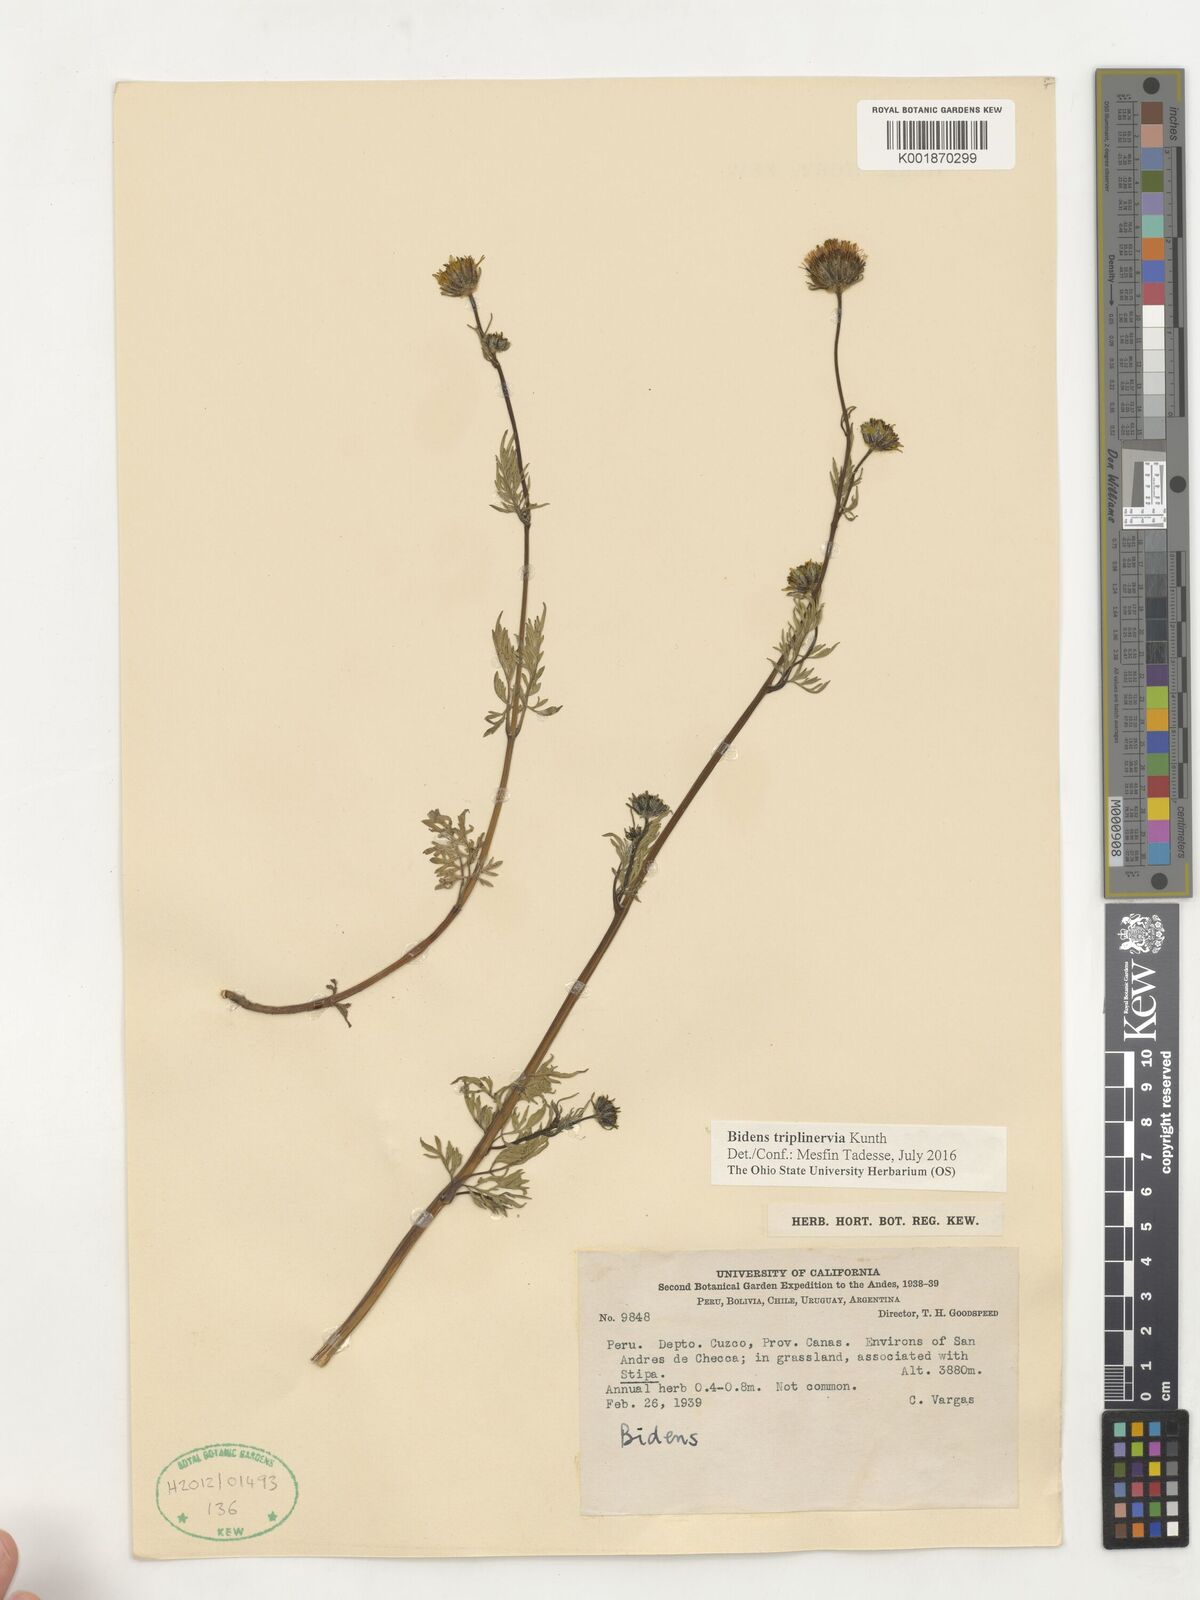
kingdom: Plantae
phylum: Tracheophyta
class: Magnoliopsida
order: Asterales
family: Asteraceae
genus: Bidens
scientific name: Bidens triplinervia
